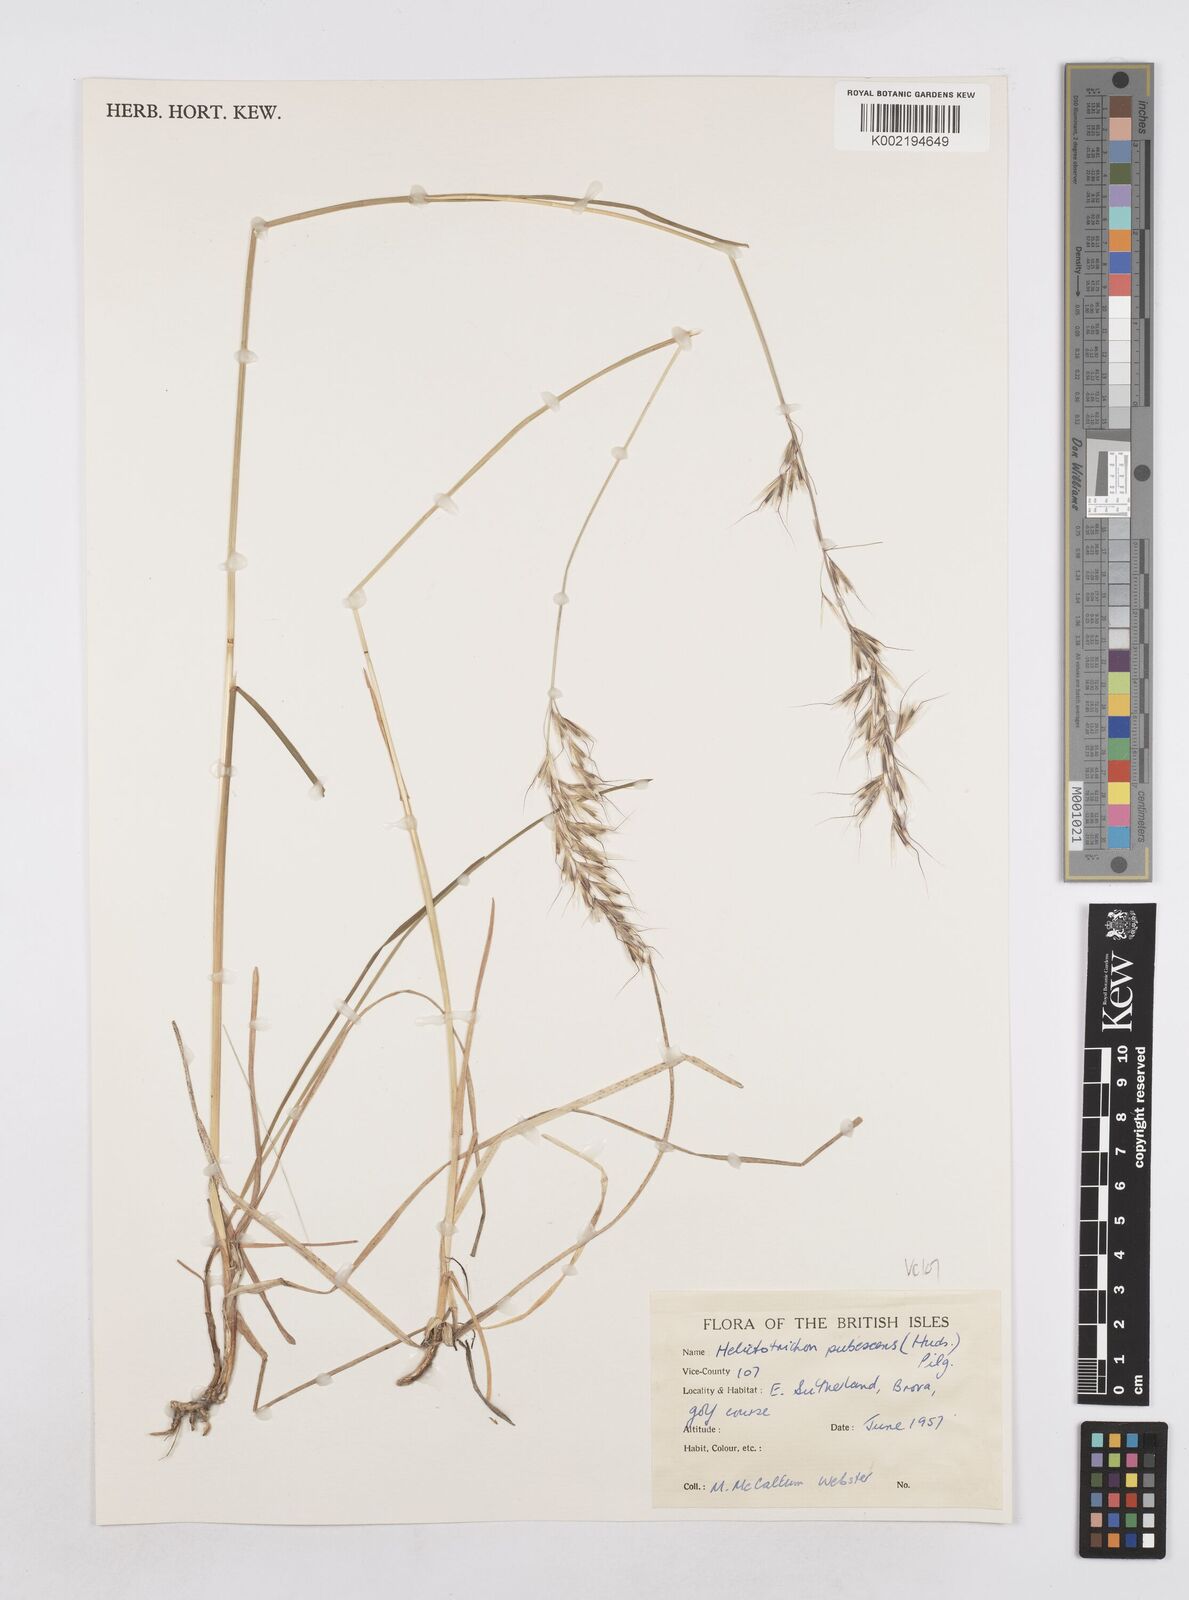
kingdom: Plantae
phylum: Tracheophyta
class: Liliopsida
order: Poales
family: Poaceae
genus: Avenula
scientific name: Avenula pubescens
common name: Downy alpine oatgrass
